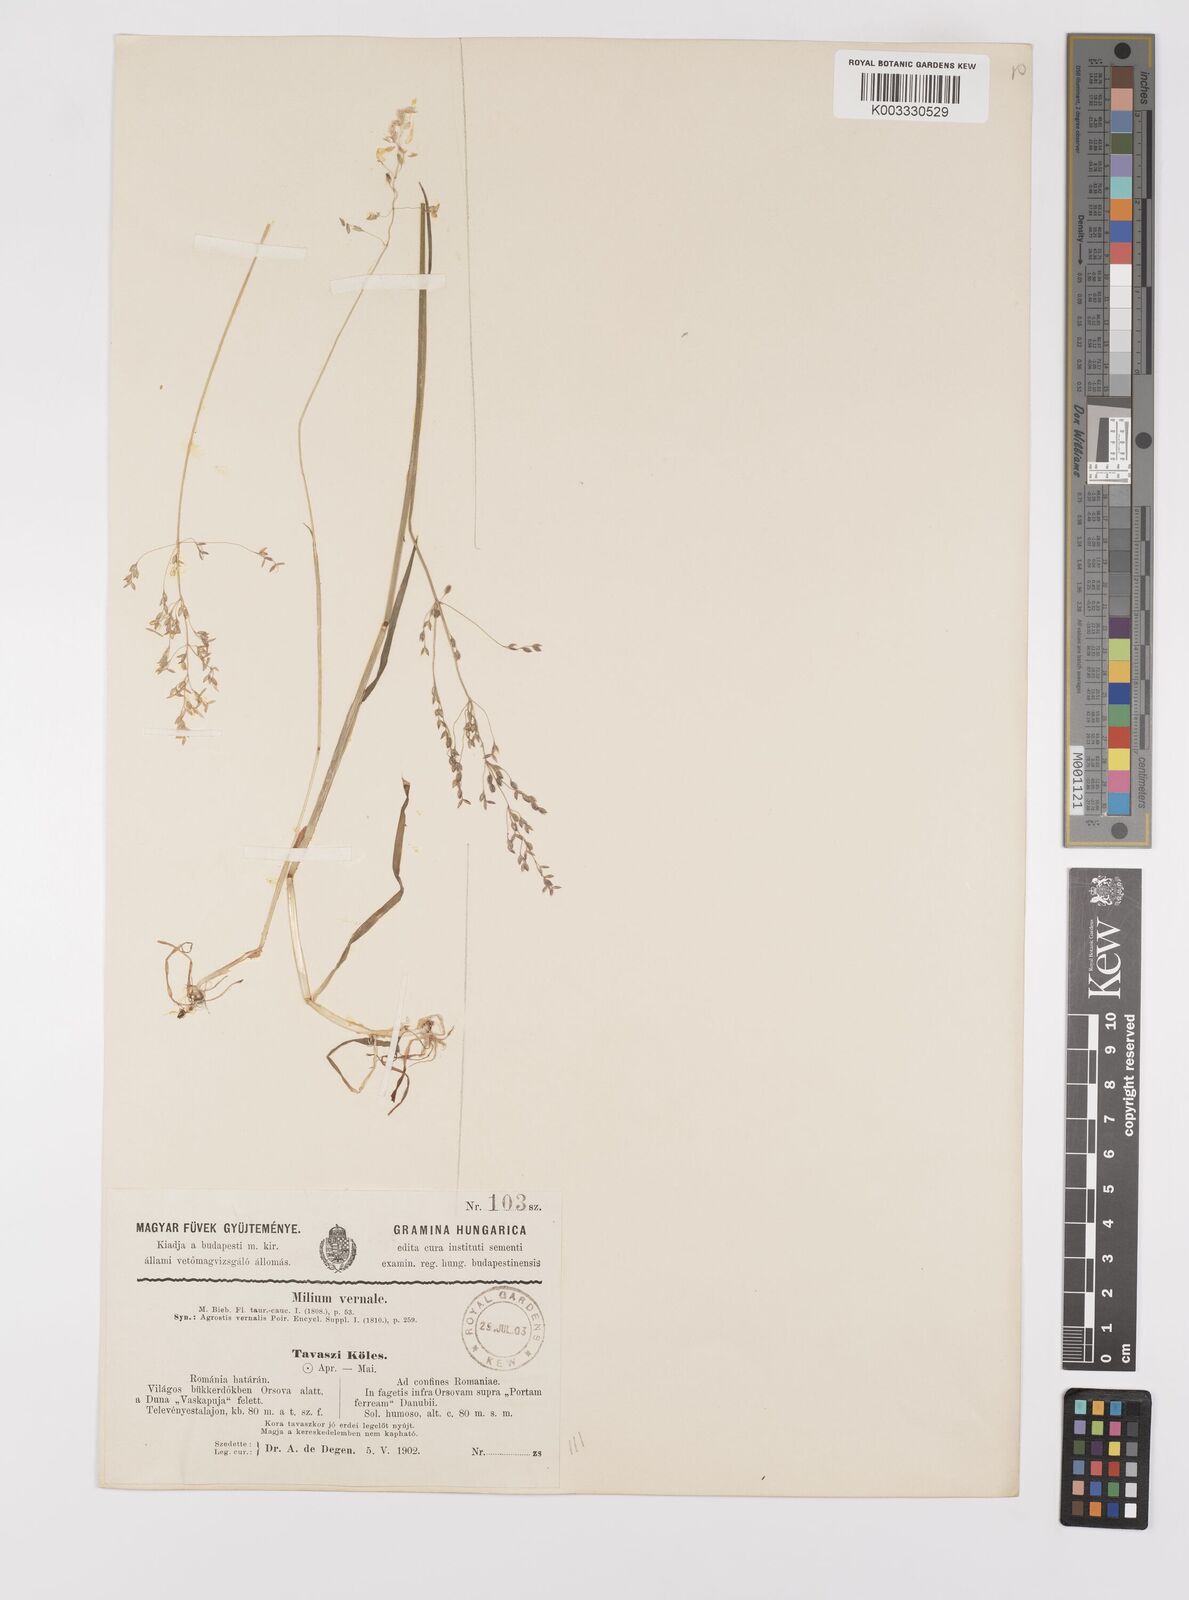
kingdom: Plantae
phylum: Tracheophyta
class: Liliopsida
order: Poales
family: Poaceae
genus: Milium
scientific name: Milium vernale
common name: Early millet
